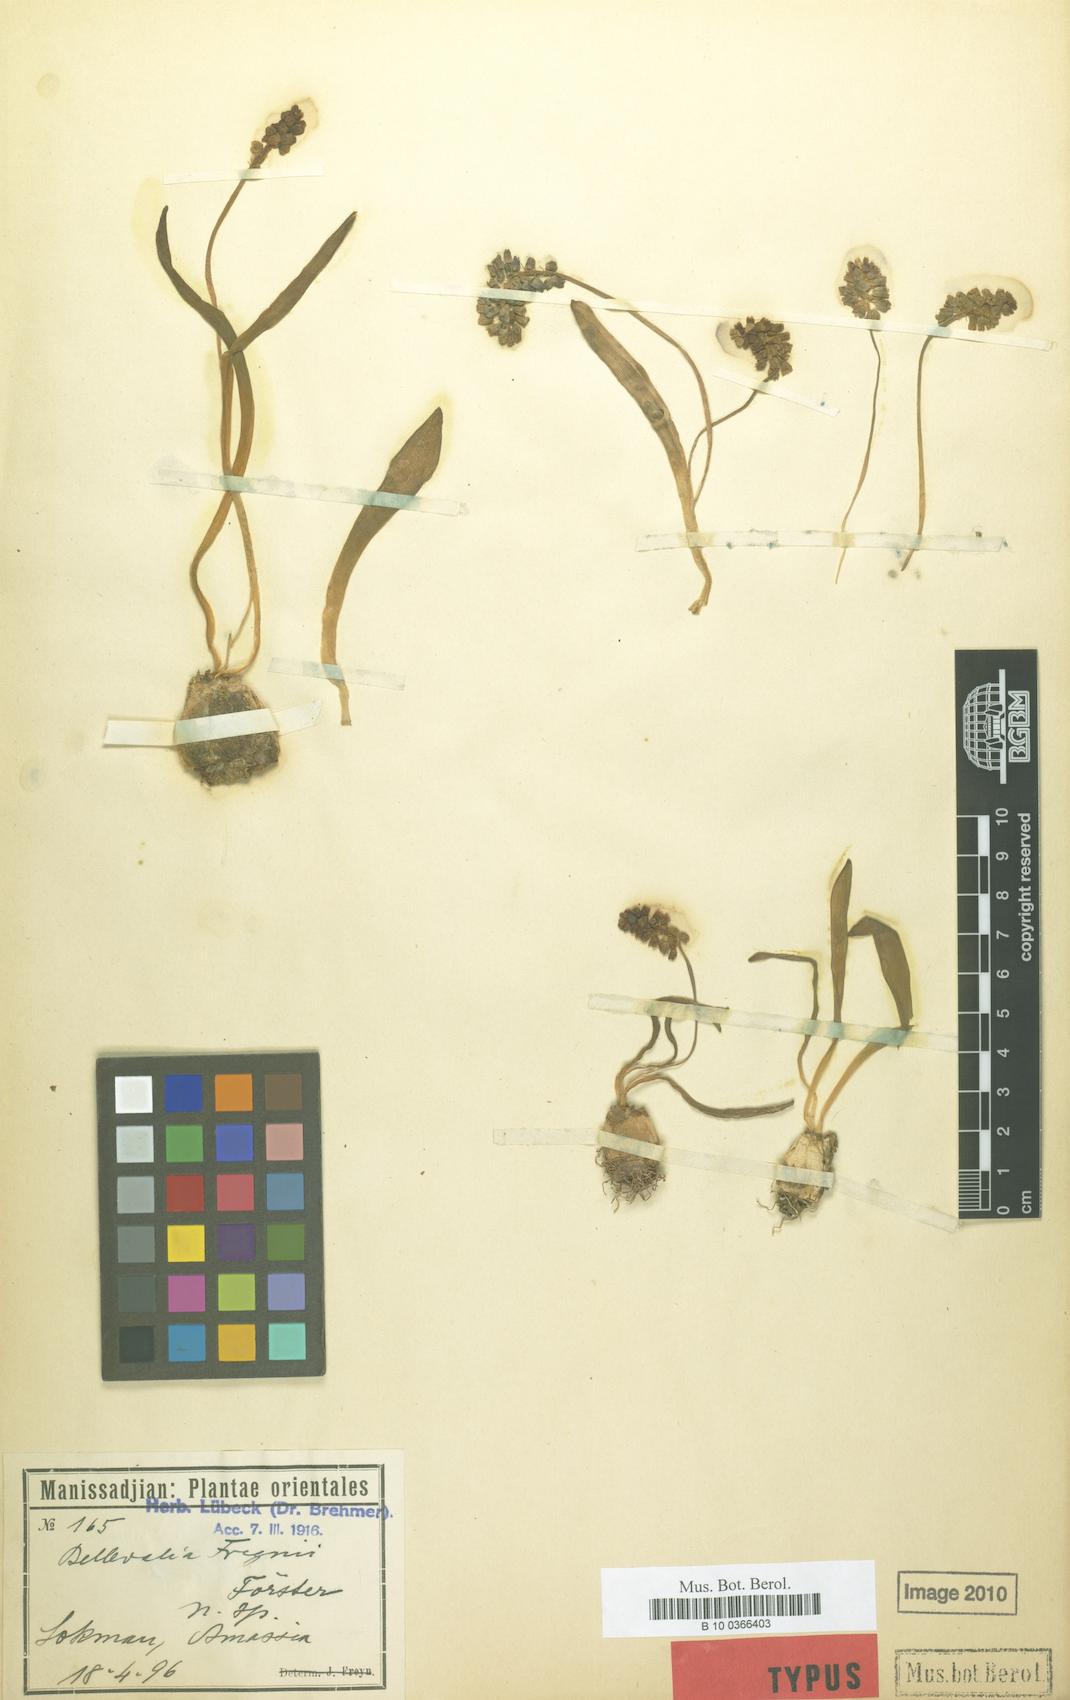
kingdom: Plantae
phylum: Tracheophyta
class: Liliopsida
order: Asparagales
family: Asparagaceae
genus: Hyacinthus
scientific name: Hyacinthus
